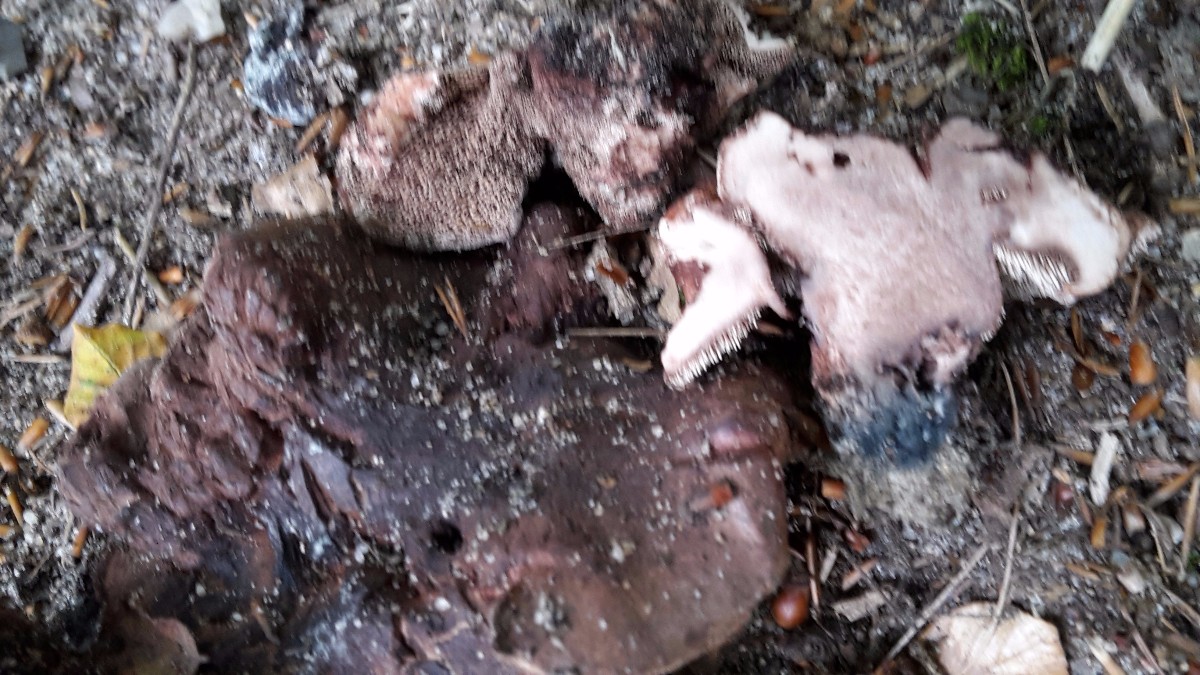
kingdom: Fungi
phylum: Basidiomycota
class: Agaricomycetes
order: Thelephorales
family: Bankeraceae
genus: Hydnellum
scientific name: Hydnellum nemorosum
